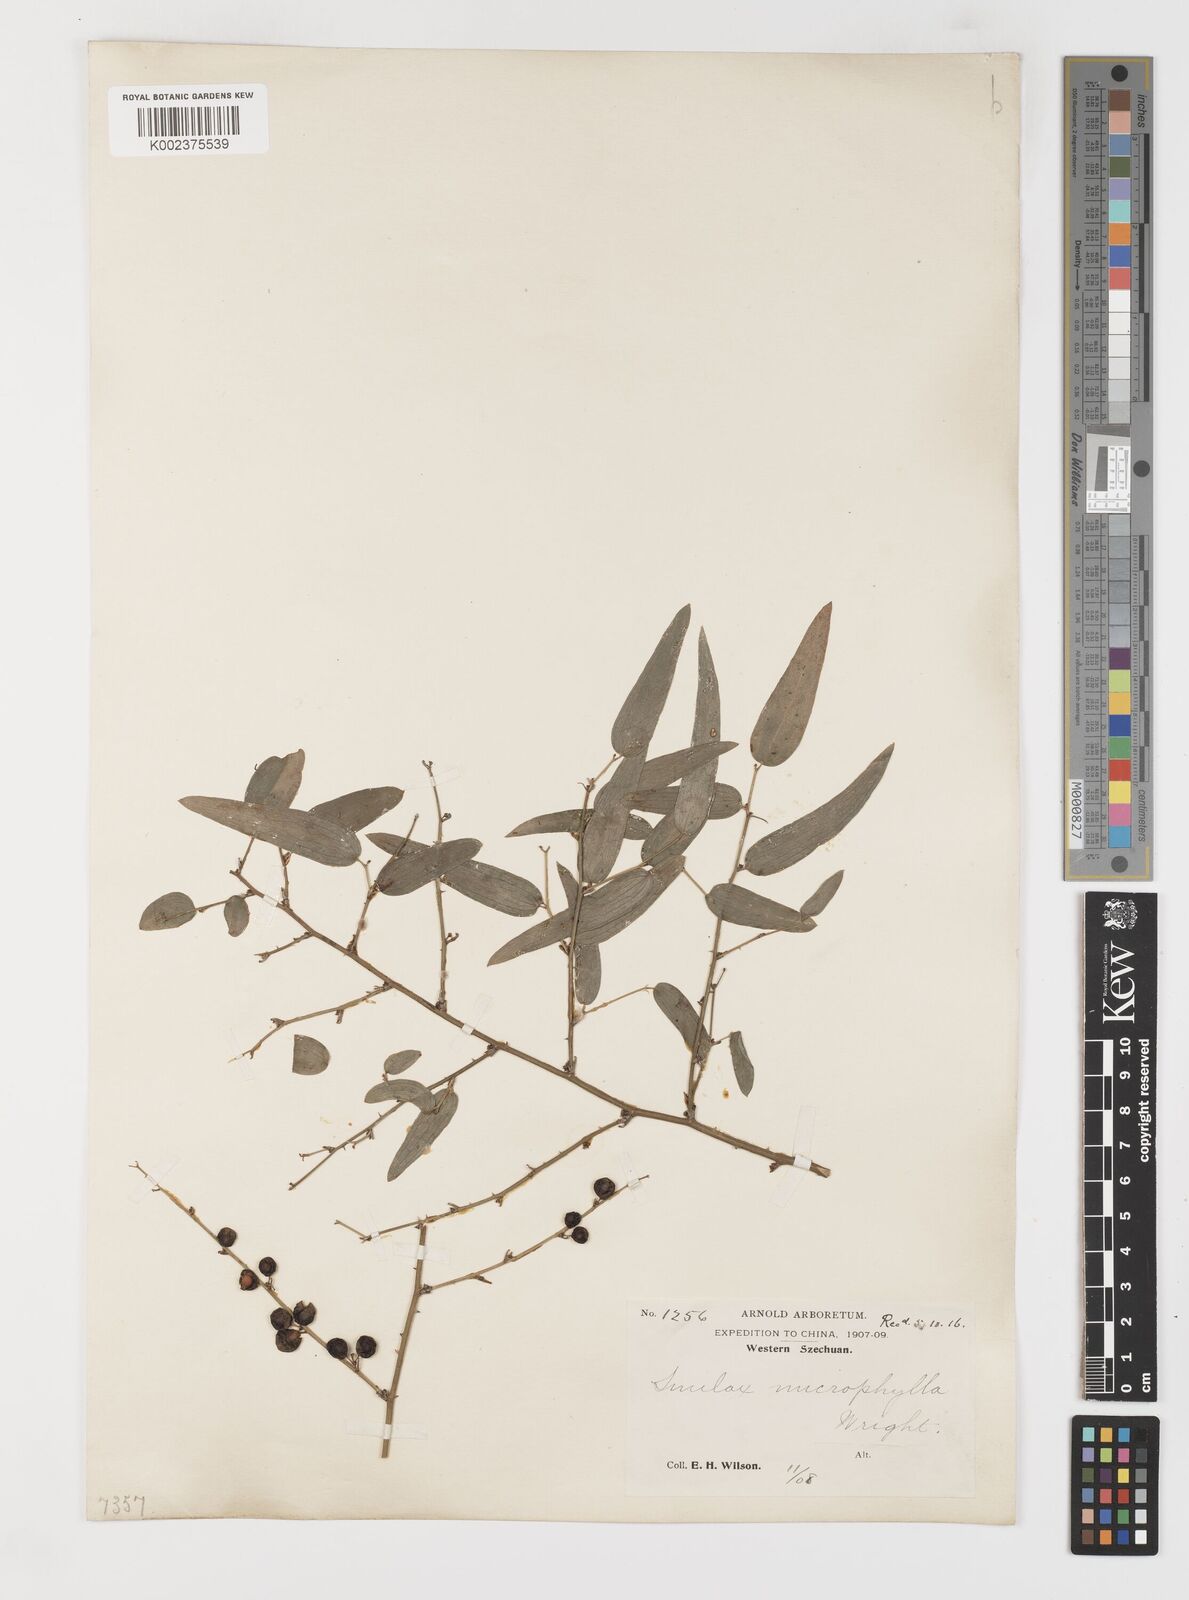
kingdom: Plantae
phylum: Tracheophyta
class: Liliopsida
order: Liliales
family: Smilacaceae
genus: Smilax
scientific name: Smilax microphylla
